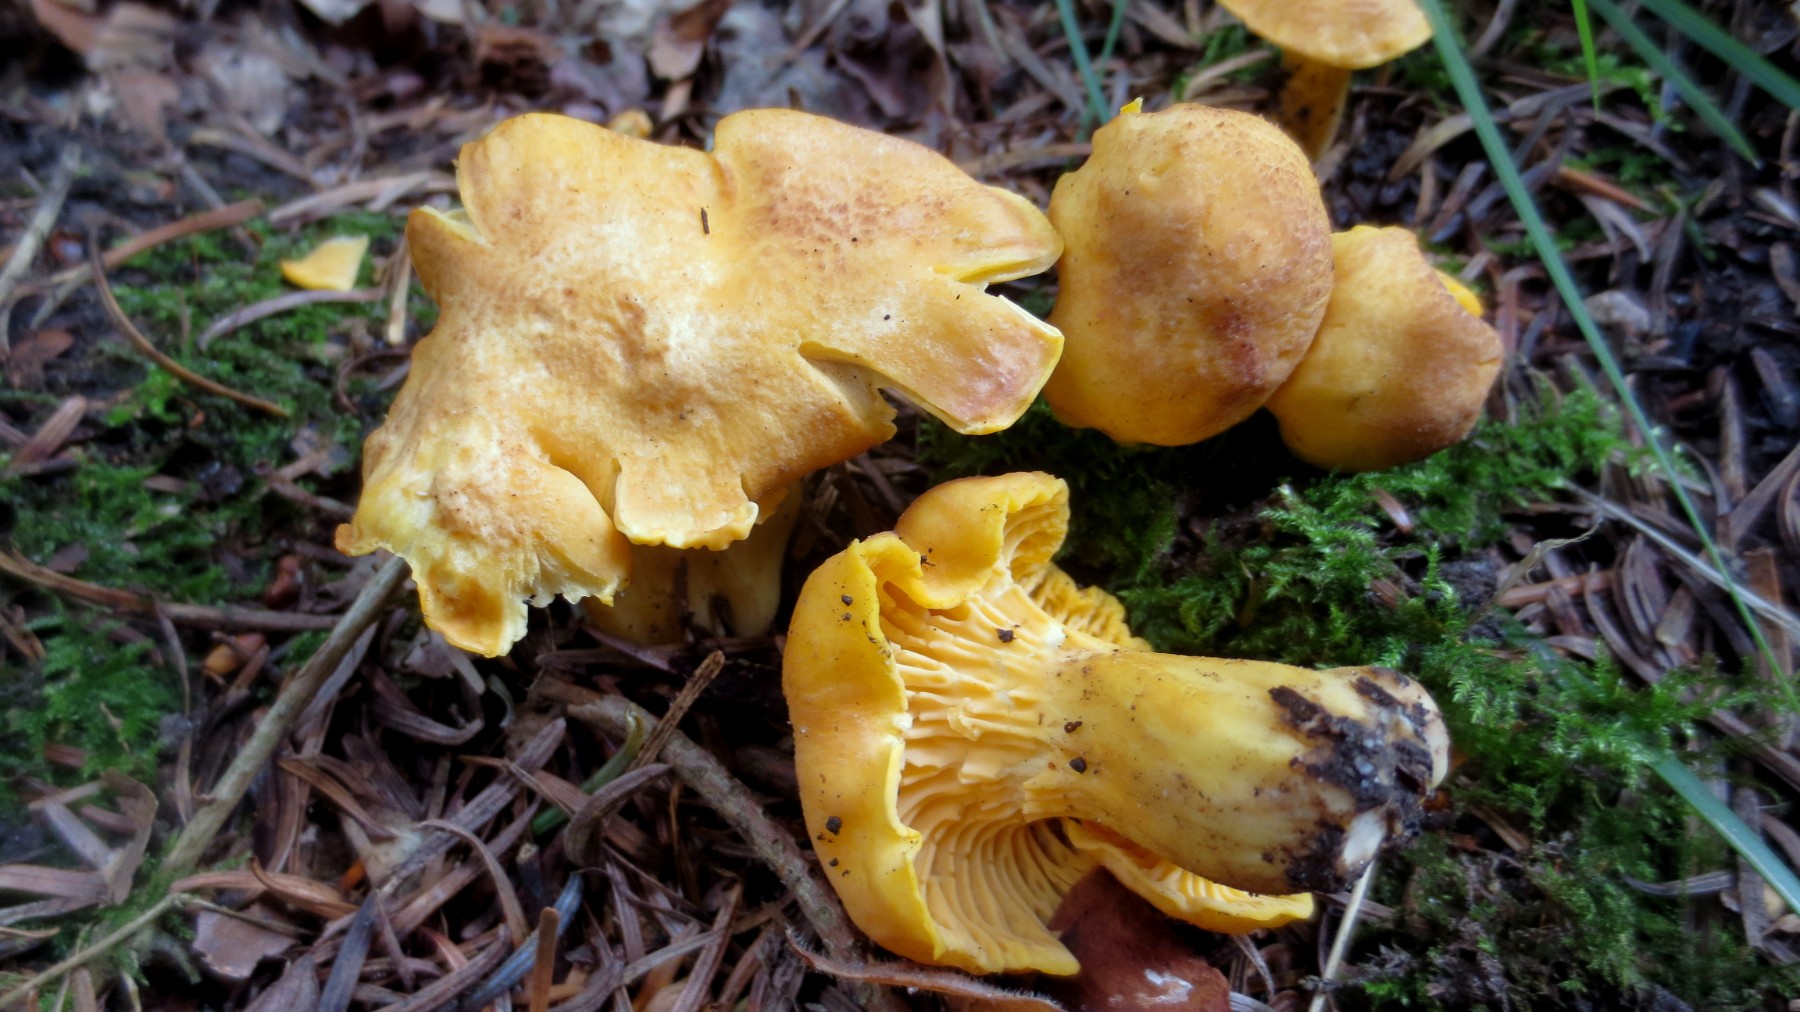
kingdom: Fungi
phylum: Basidiomycota
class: Agaricomycetes
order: Cantharellales
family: Hydnaceae
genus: Cantharellus
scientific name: Cantharellus amethysteus
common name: ametyst-kantarel
